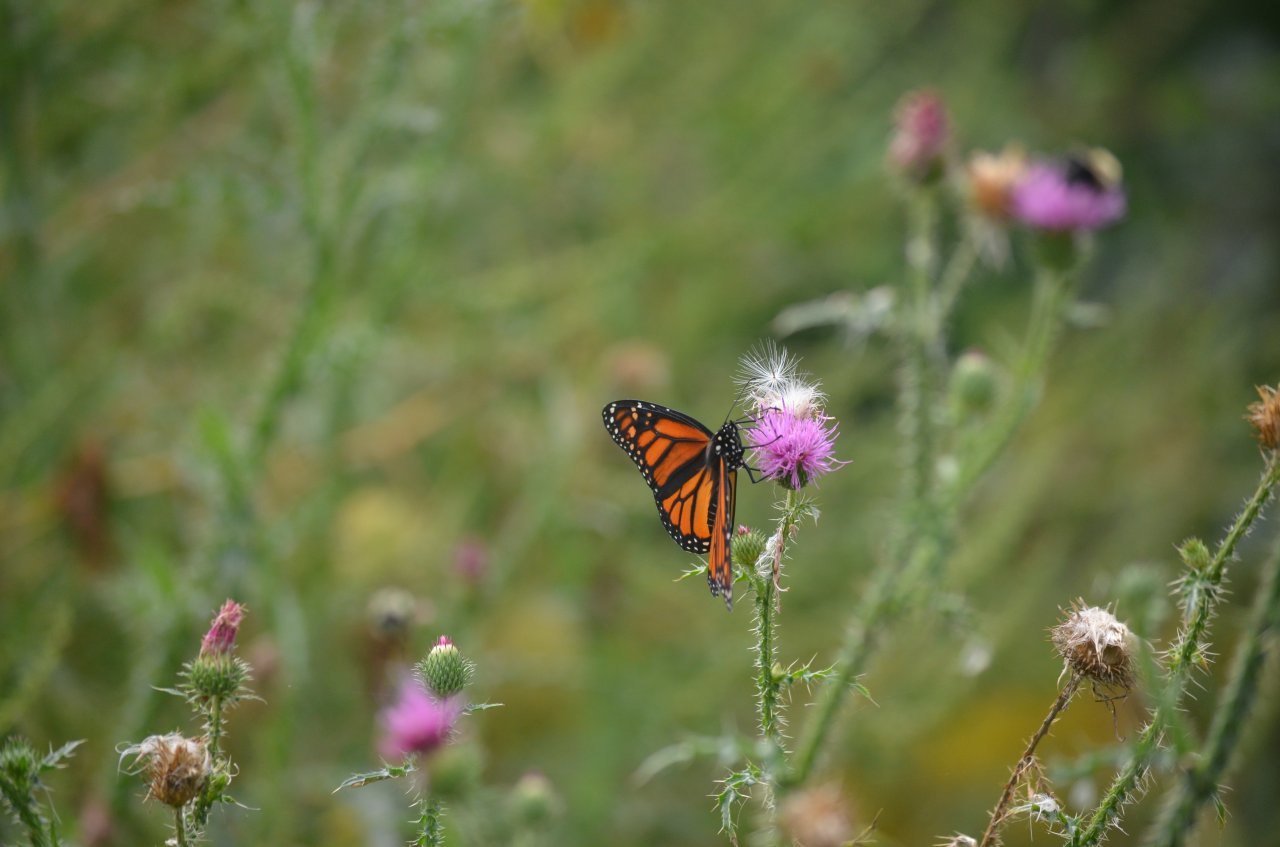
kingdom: Animalia
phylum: Arthropoda
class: Insecta
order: Lepidoptera
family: Nymphalidae
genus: Danaus
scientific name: Danaus plexippus
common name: Monarch
